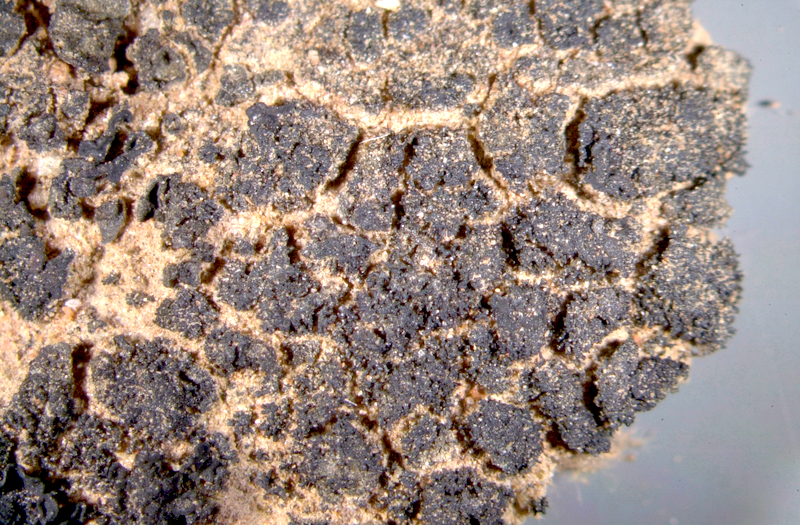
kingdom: Fungi
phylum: Ascomycota
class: Lichinomycetes
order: Lichinales
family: Lichinaceae
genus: Peccania
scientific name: Peccania fontqueriana
